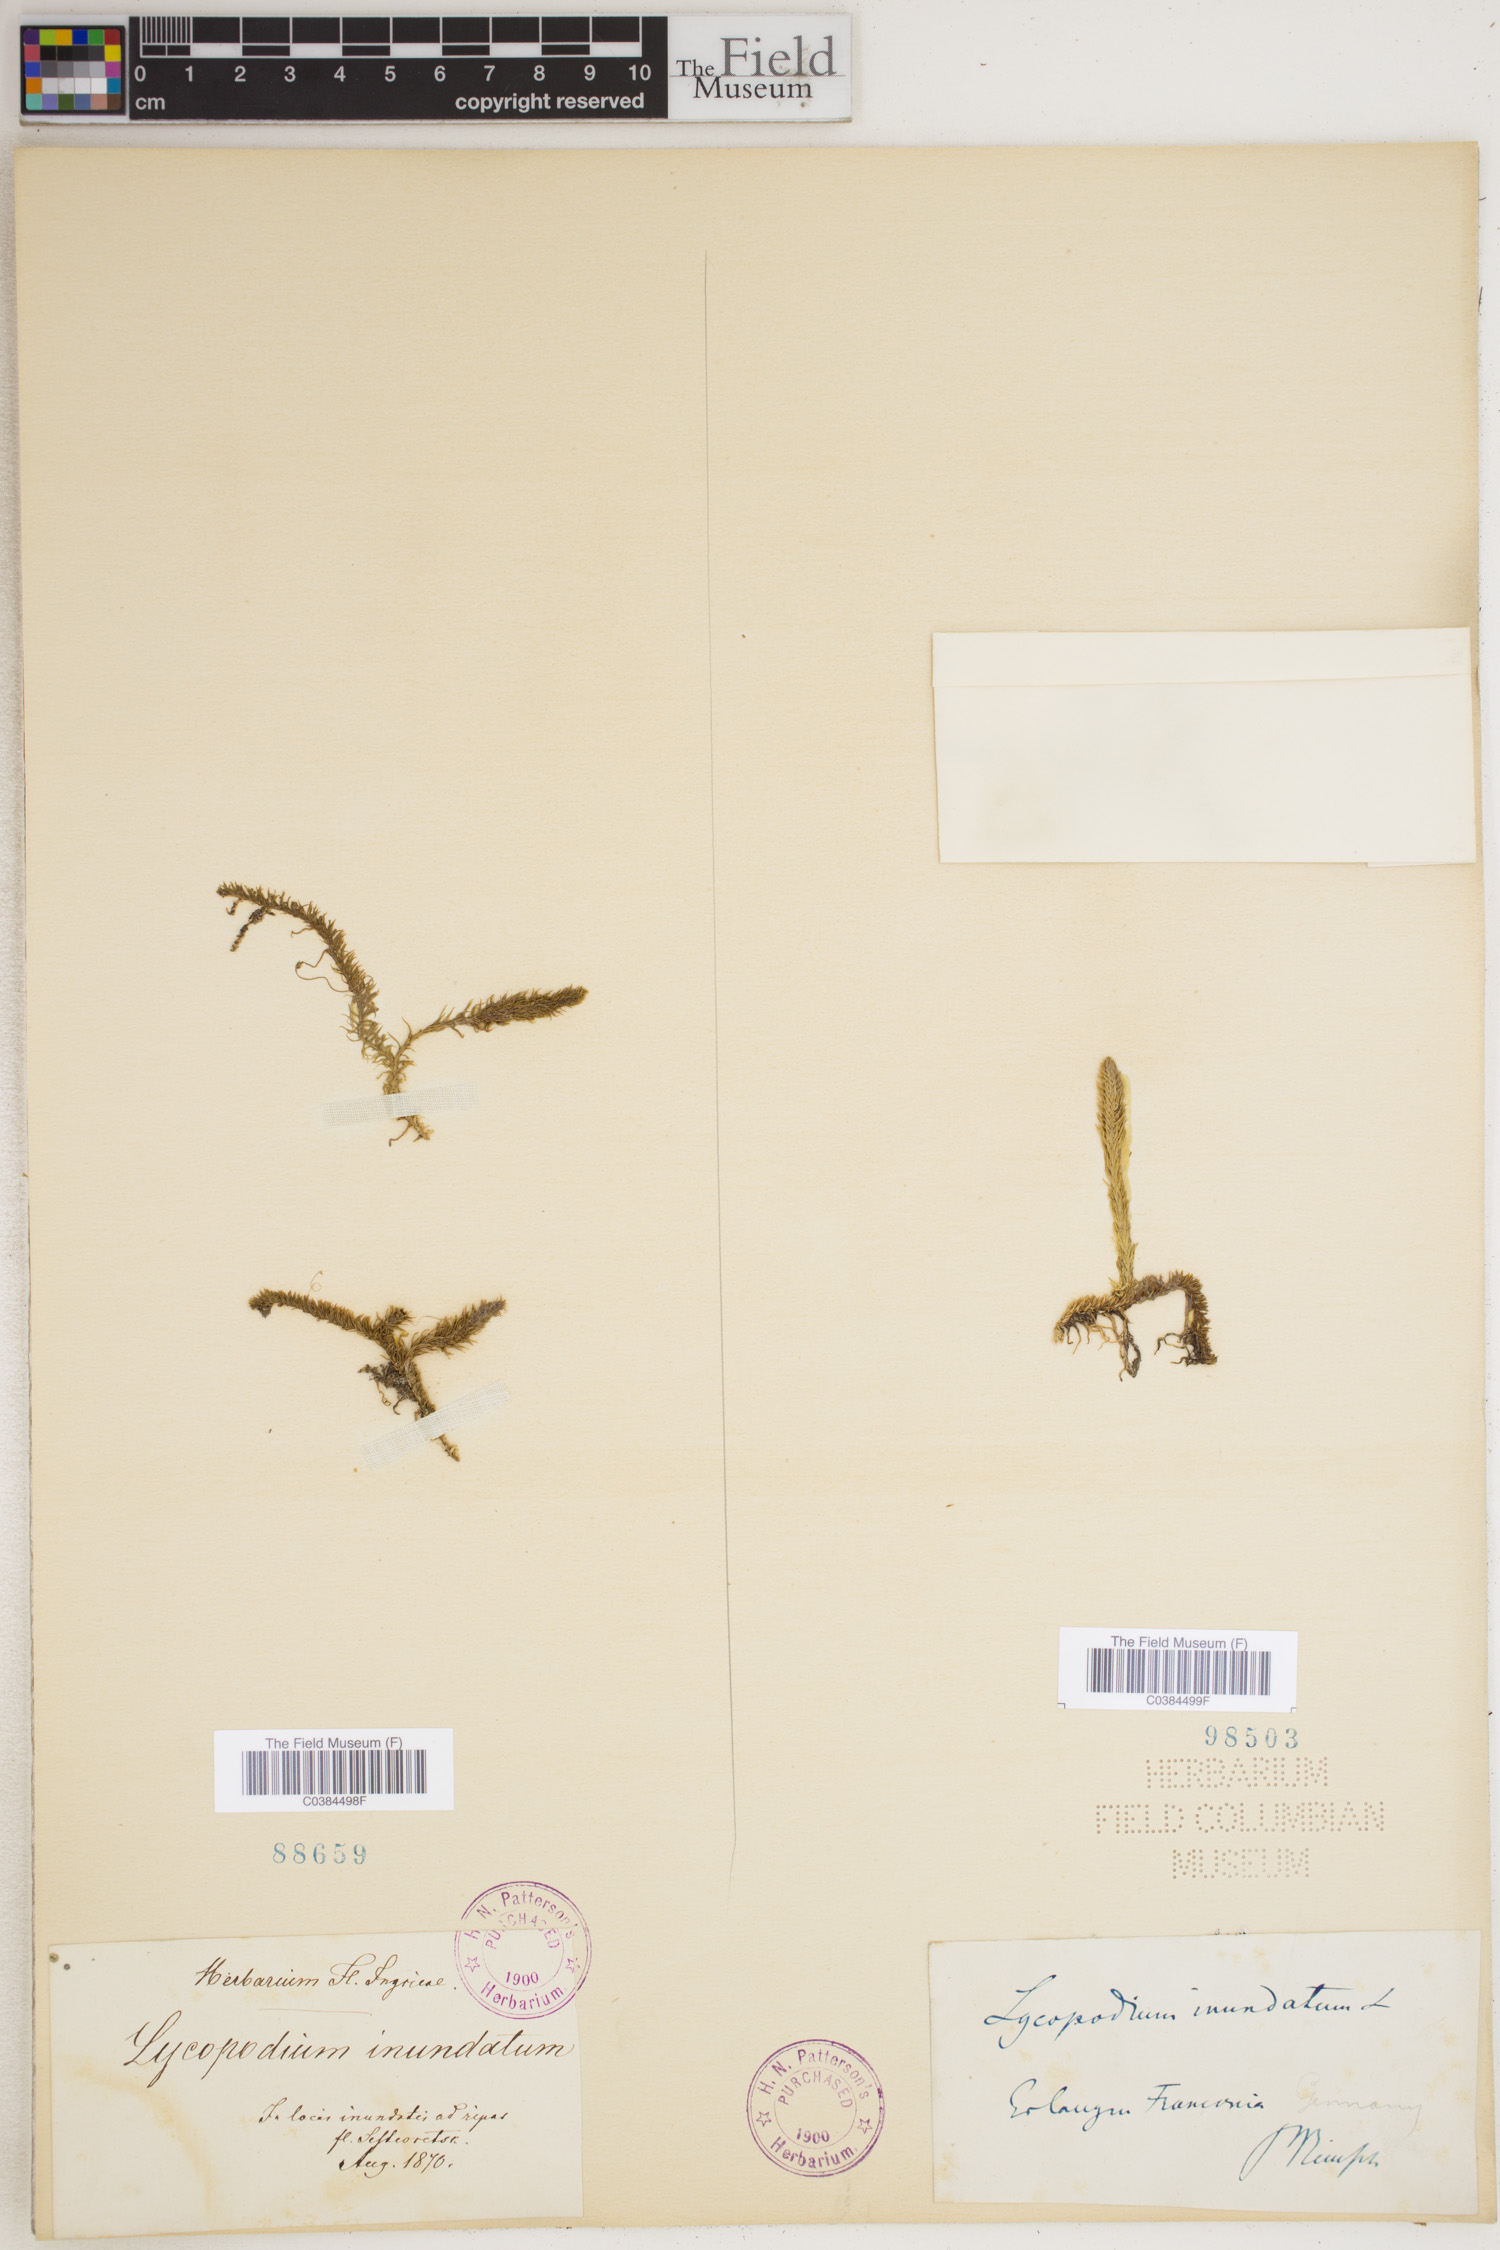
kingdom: Plantae
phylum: Tracheophyta
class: Lycopodiopsida
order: Lycopodiales
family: Lycopodiaceae
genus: Lycopodiella
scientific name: Lycopodiella inundata
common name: Marsh clubmoss
